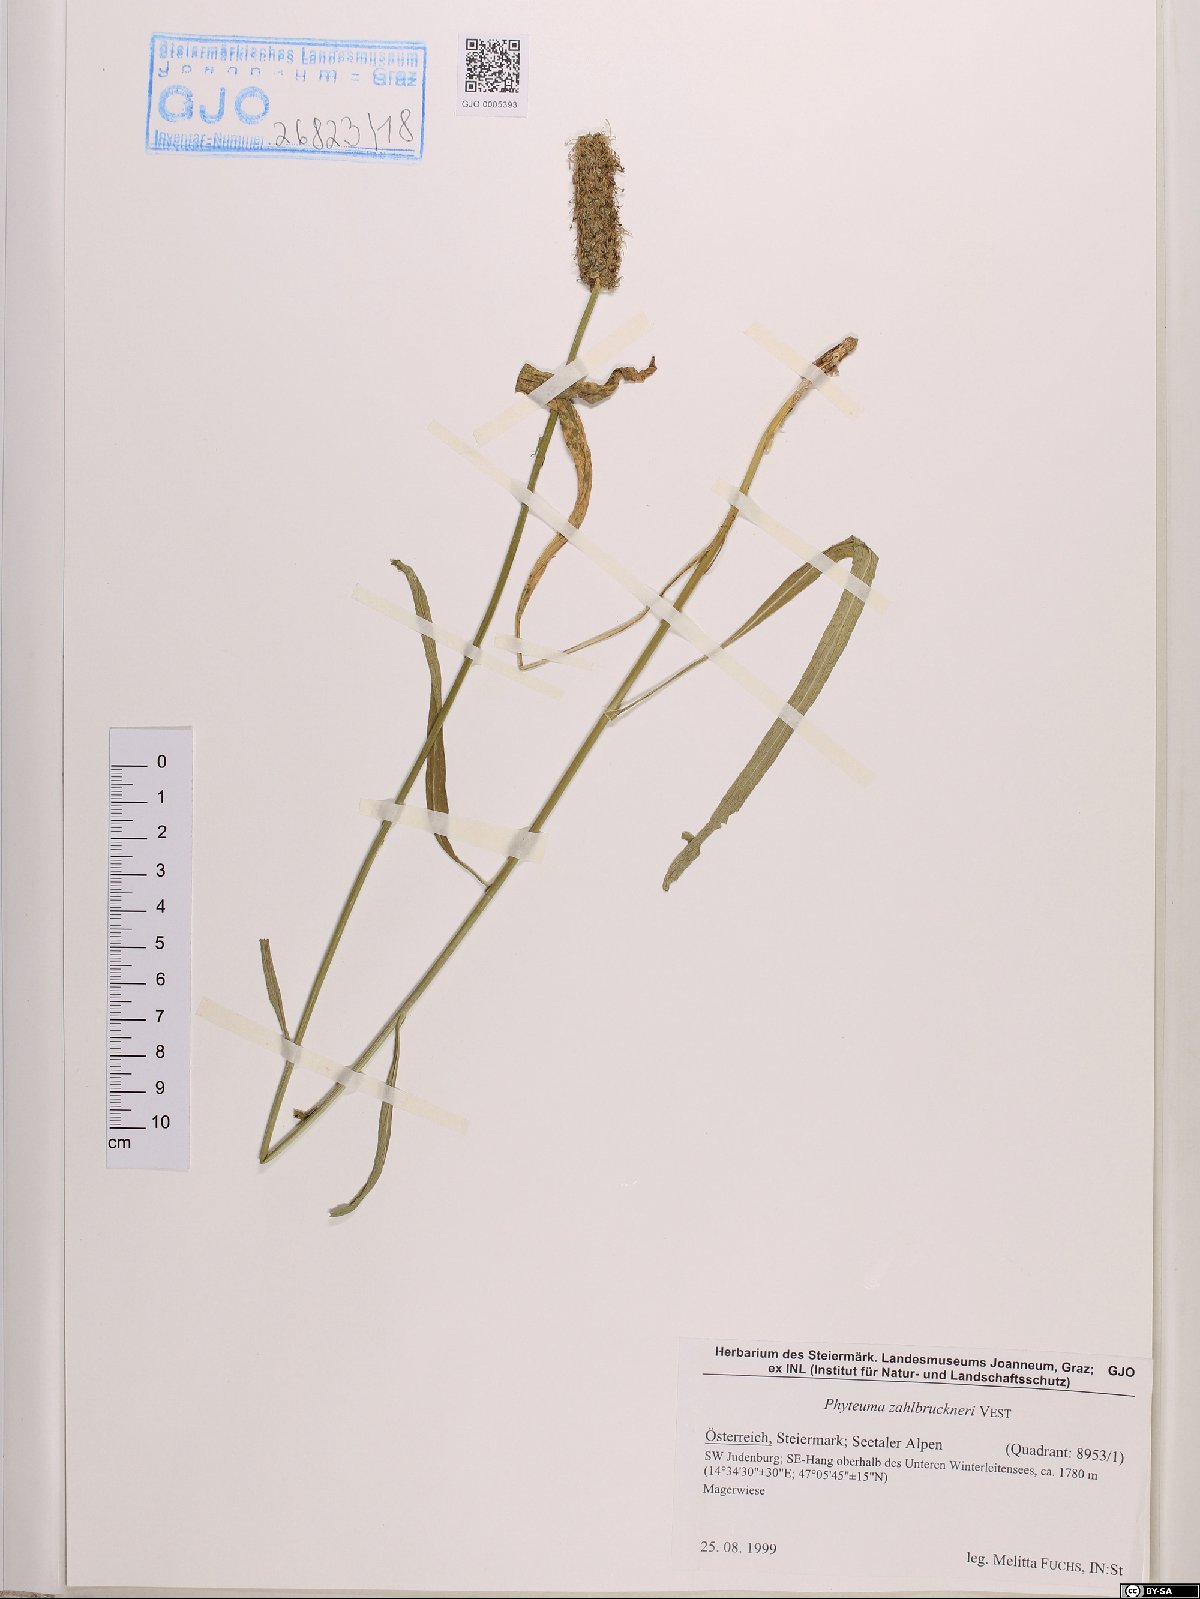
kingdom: Plantae
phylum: Tracheophyta
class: Magnoliopsida
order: Asterales
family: Campanulaceae
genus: Phyteuma
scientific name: Phyteuma persicifolium
